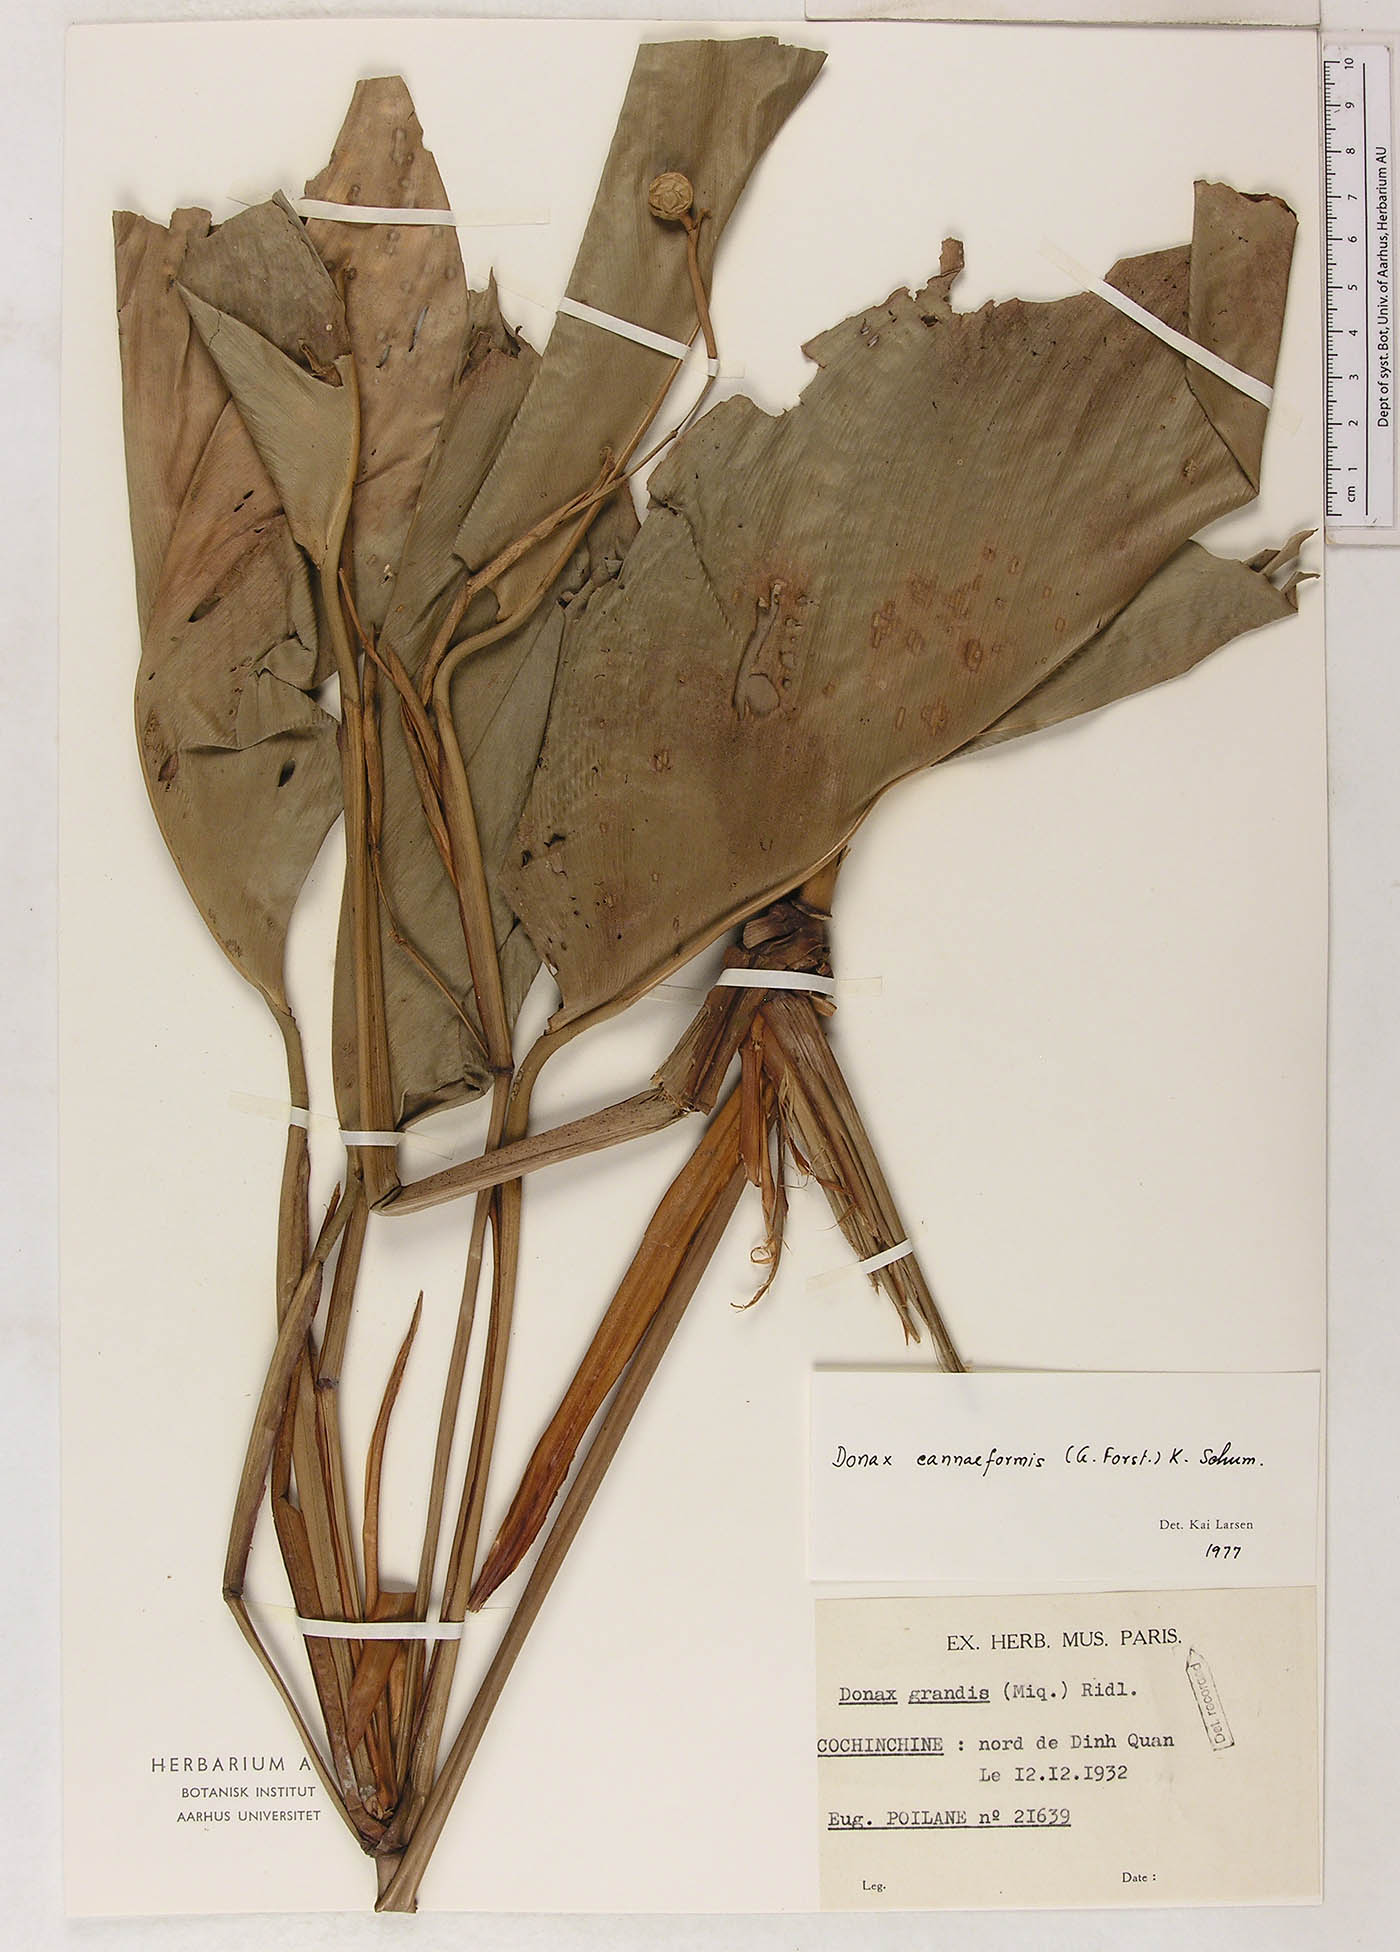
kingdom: Plantae
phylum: Tracheophyta
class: Liliopsida
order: Zingiberales
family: Marantaceae
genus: Donax
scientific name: Donax canniformis
